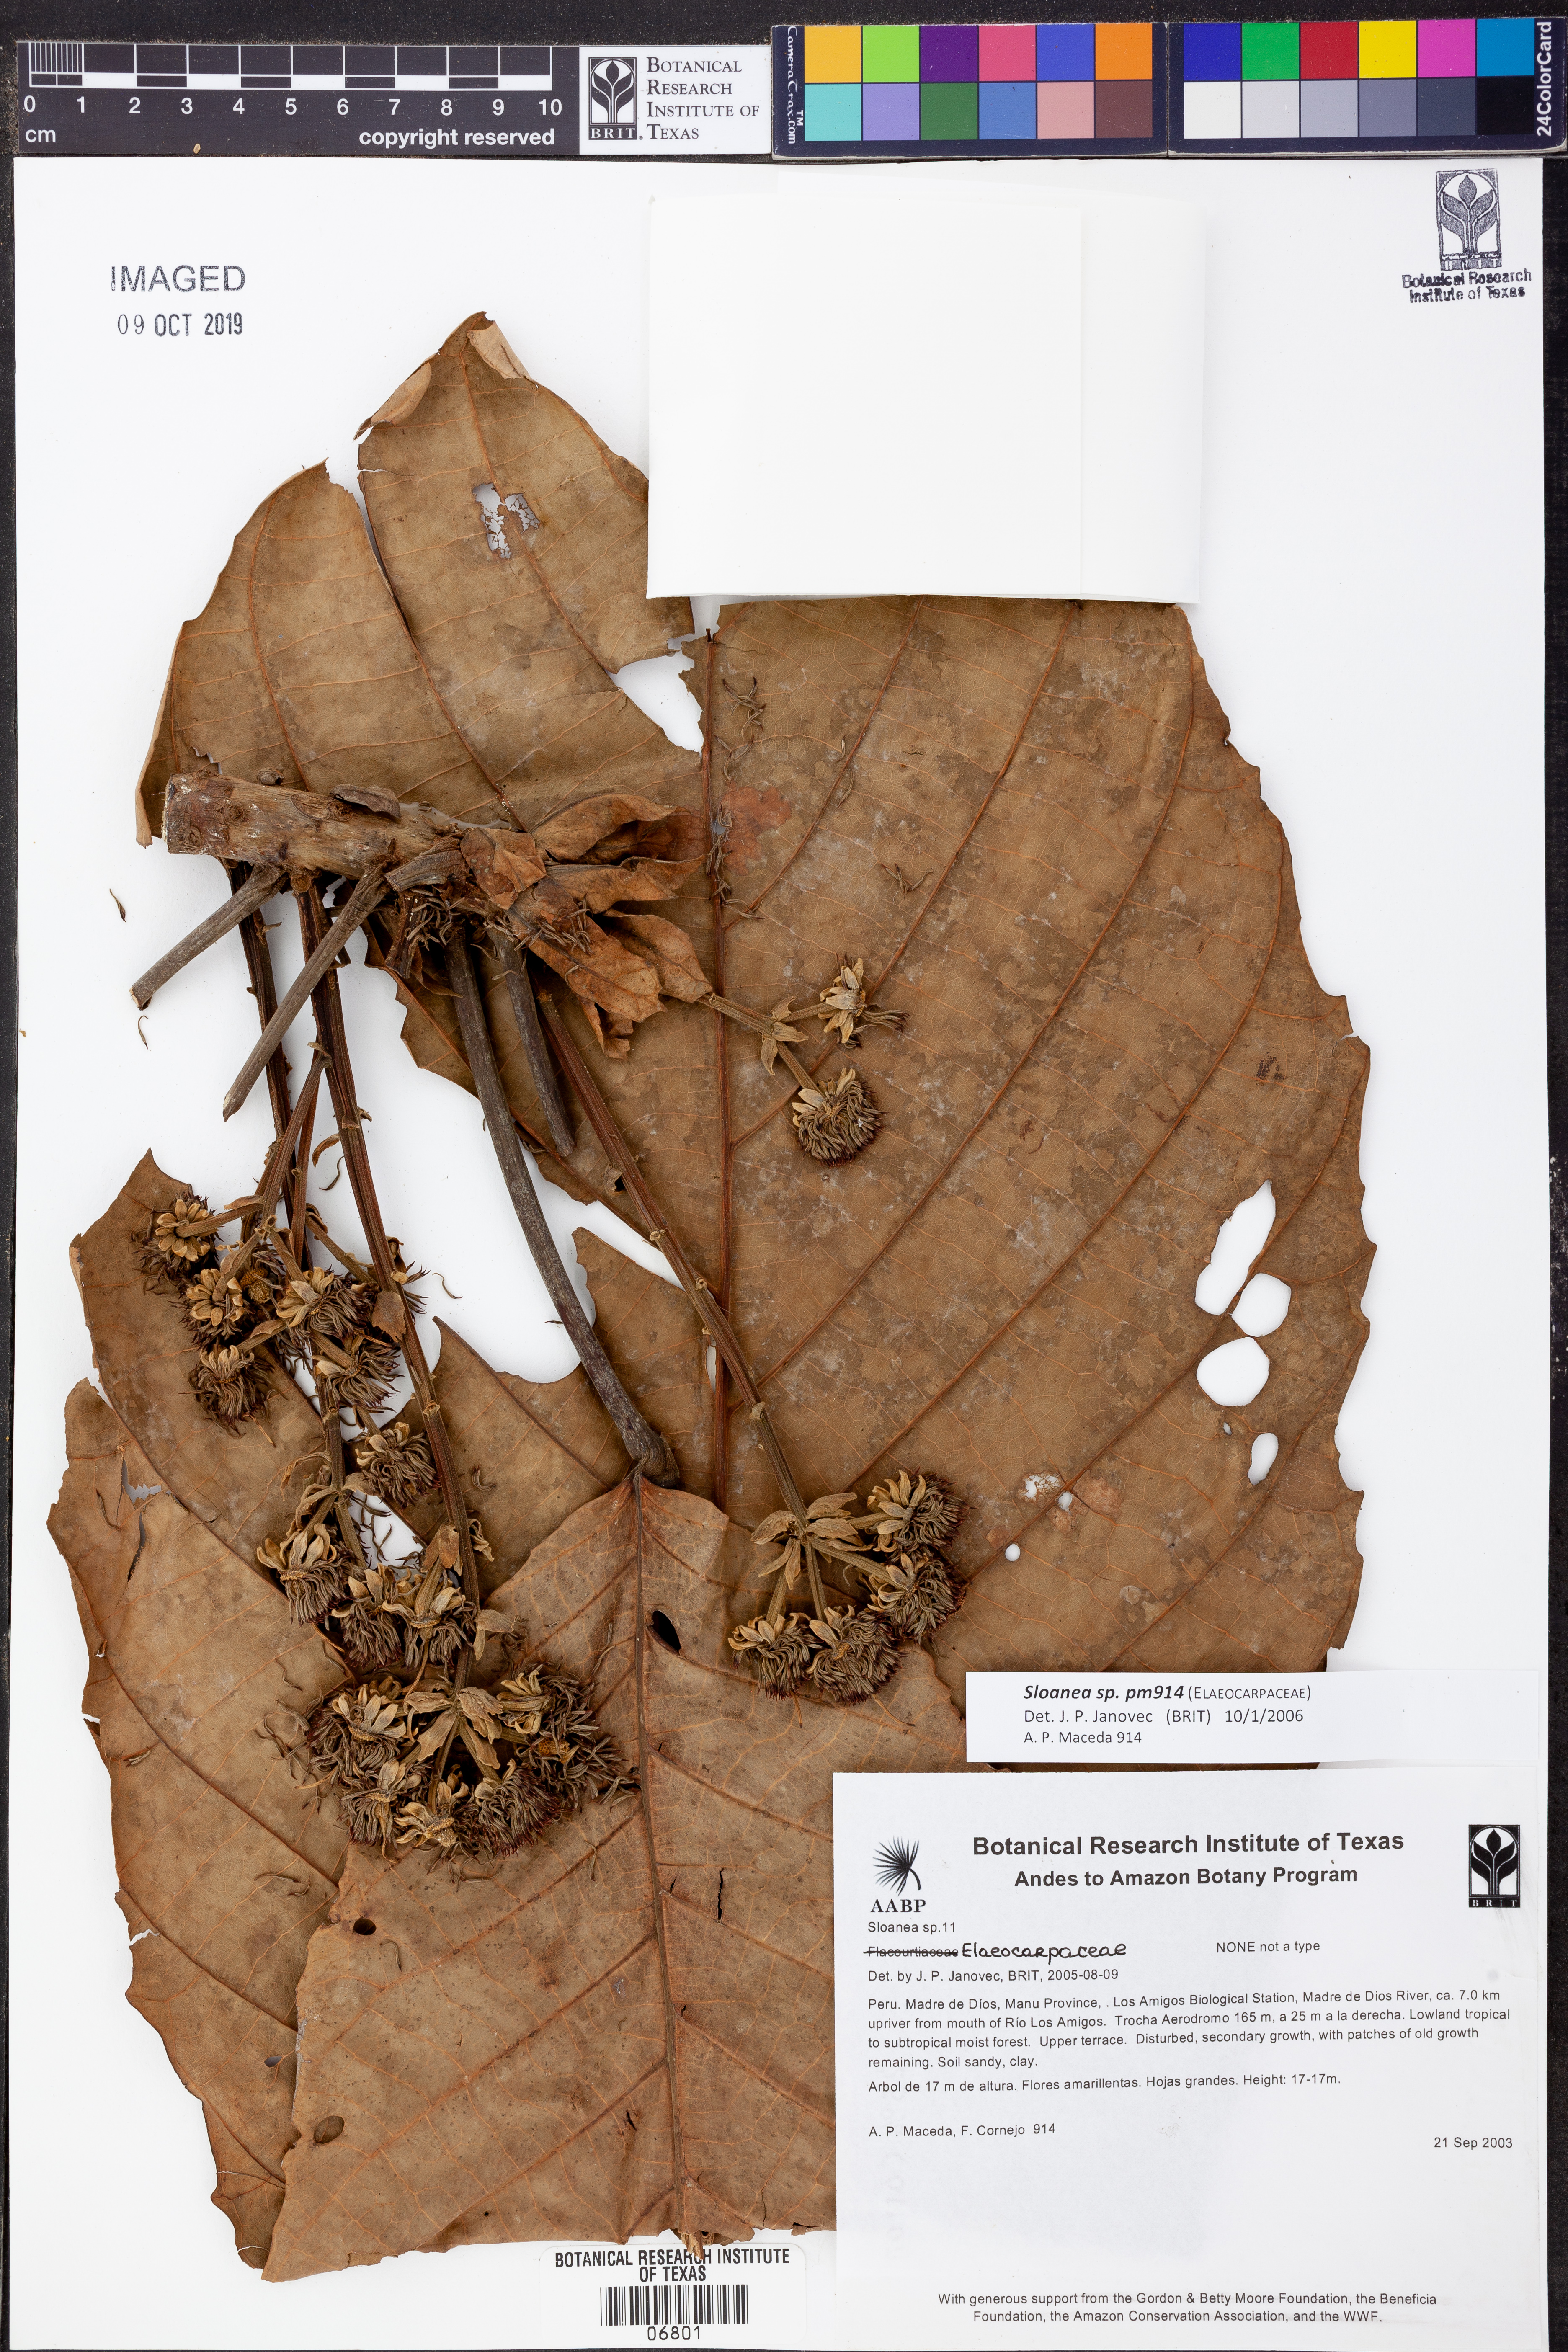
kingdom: Plantae
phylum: Tracheophyta
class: Magnoliopsida
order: Oxalidales
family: Elaeocarpaceae
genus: Sloanea
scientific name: Sloanea
